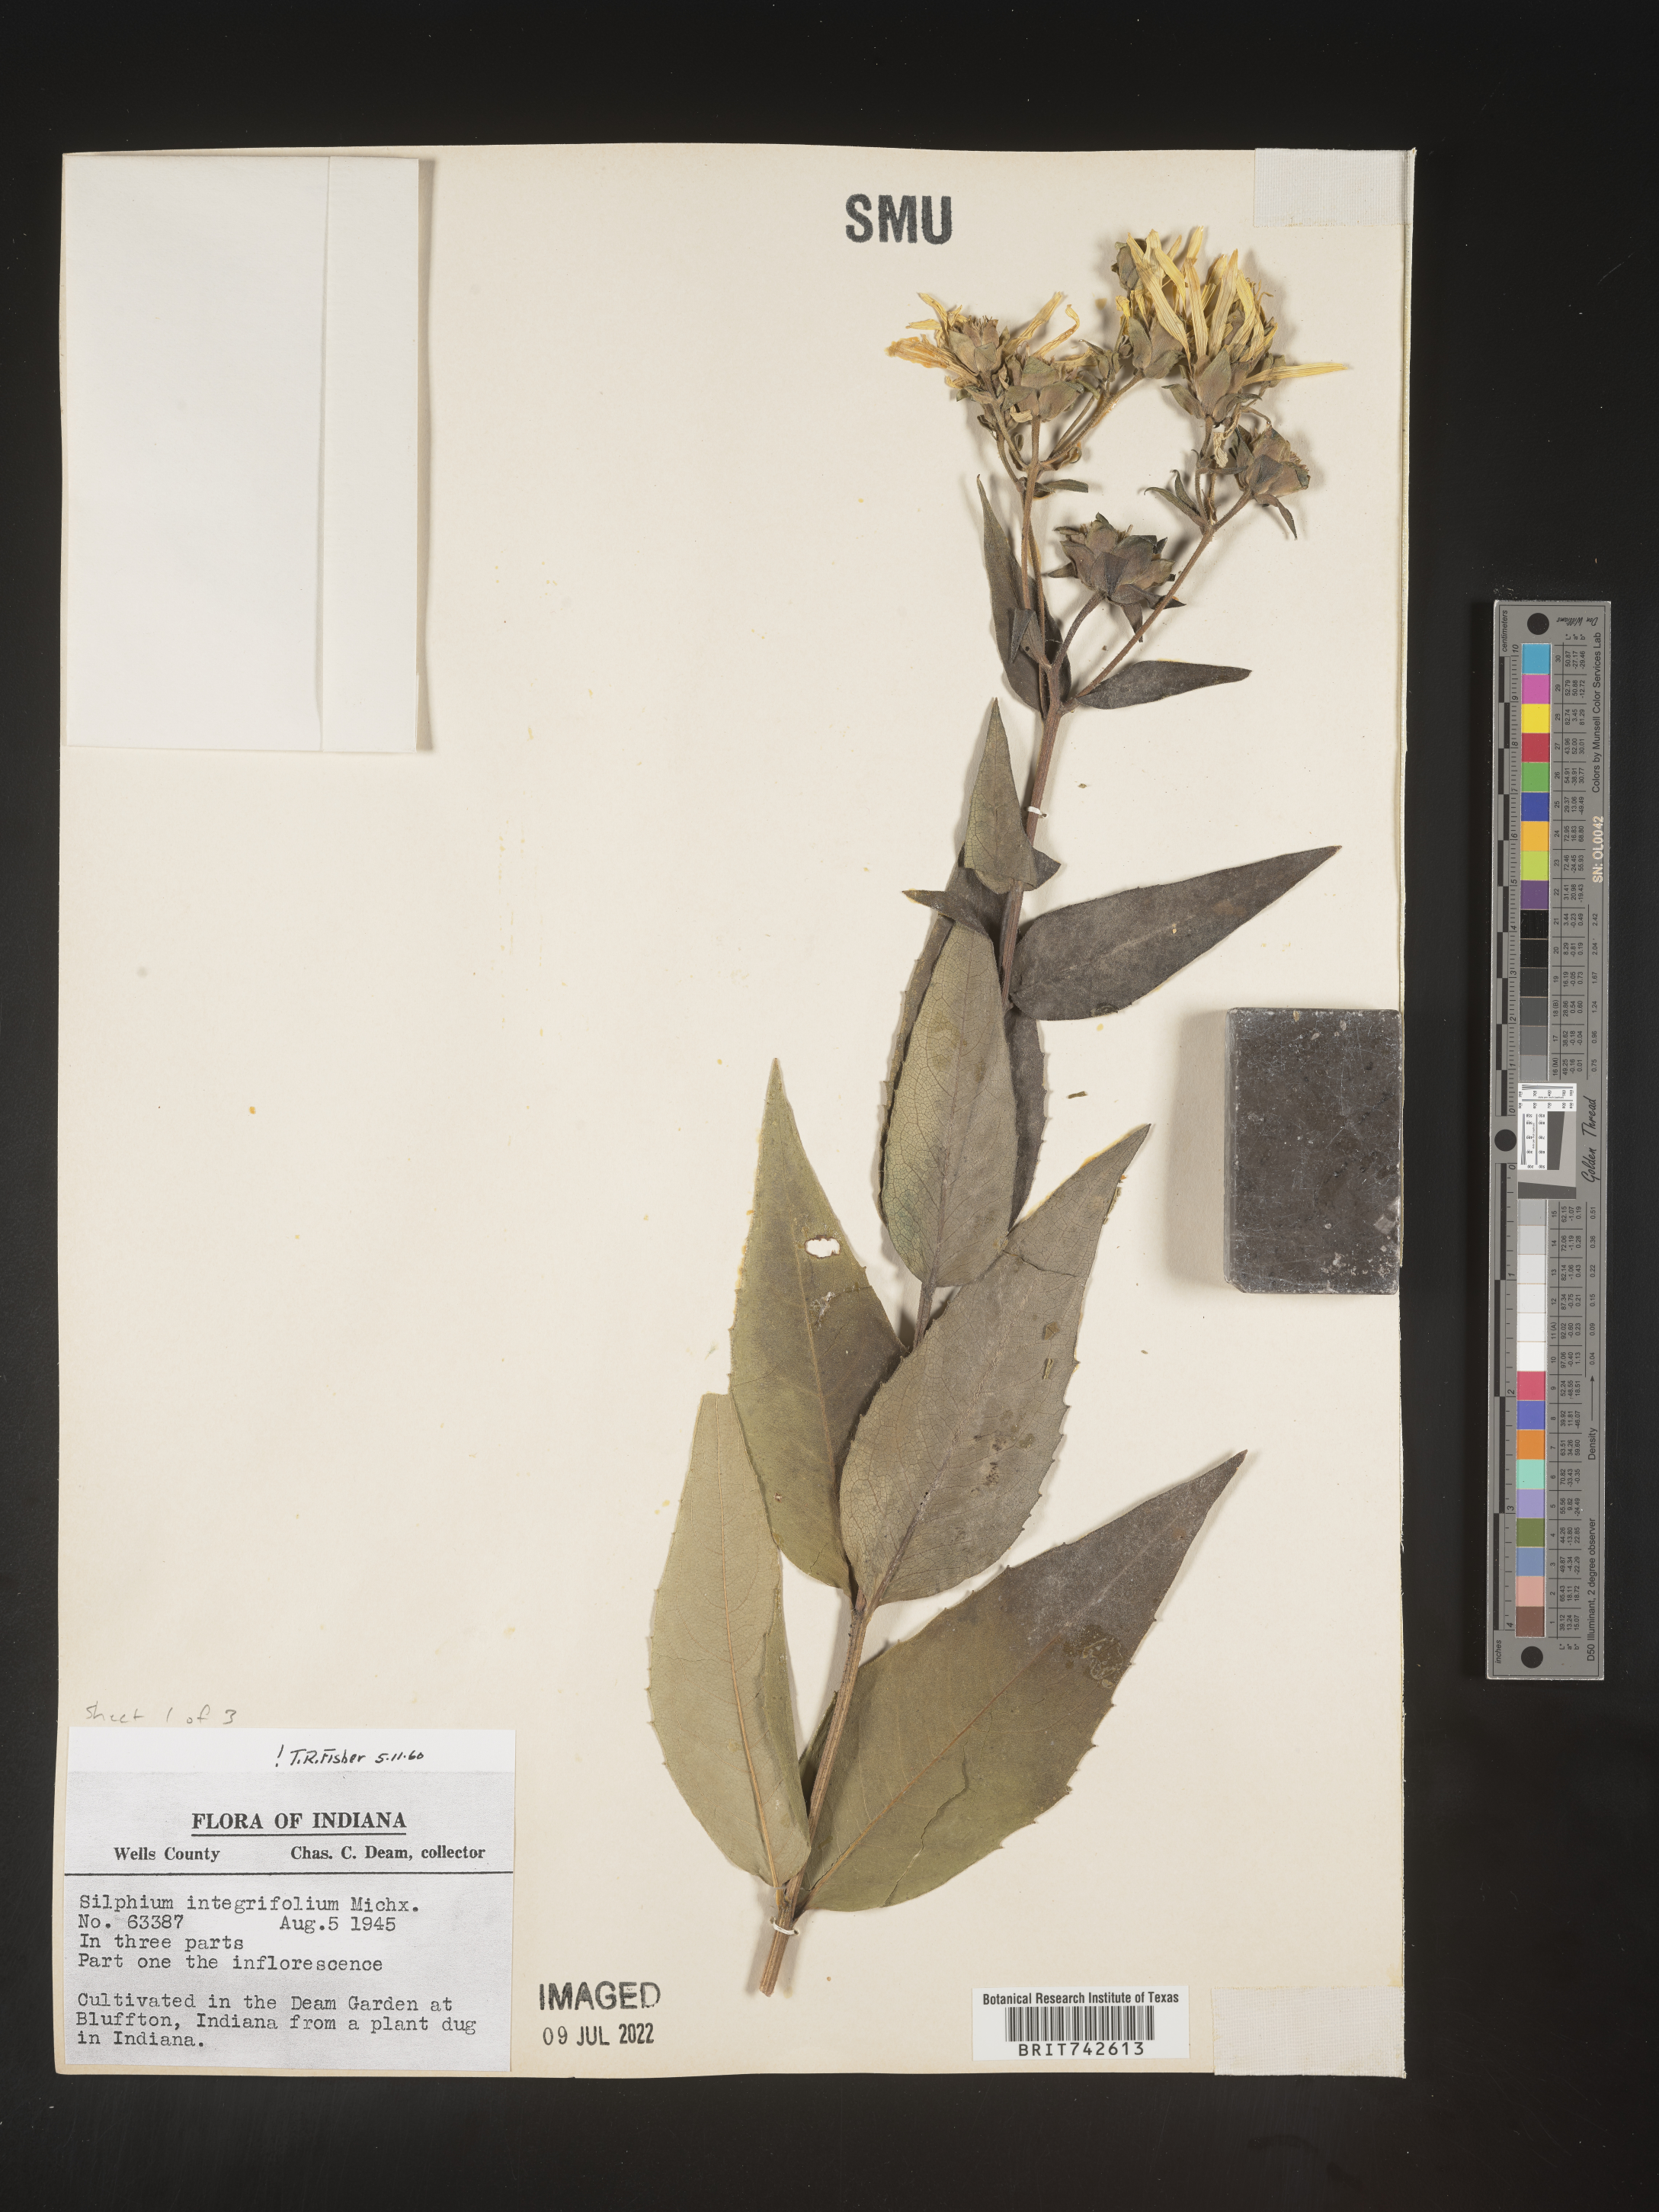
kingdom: Plantae
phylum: Tracheophyta
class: Magnoliopsida
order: Asterales
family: Asteraceae
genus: Silphium
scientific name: Silphium
